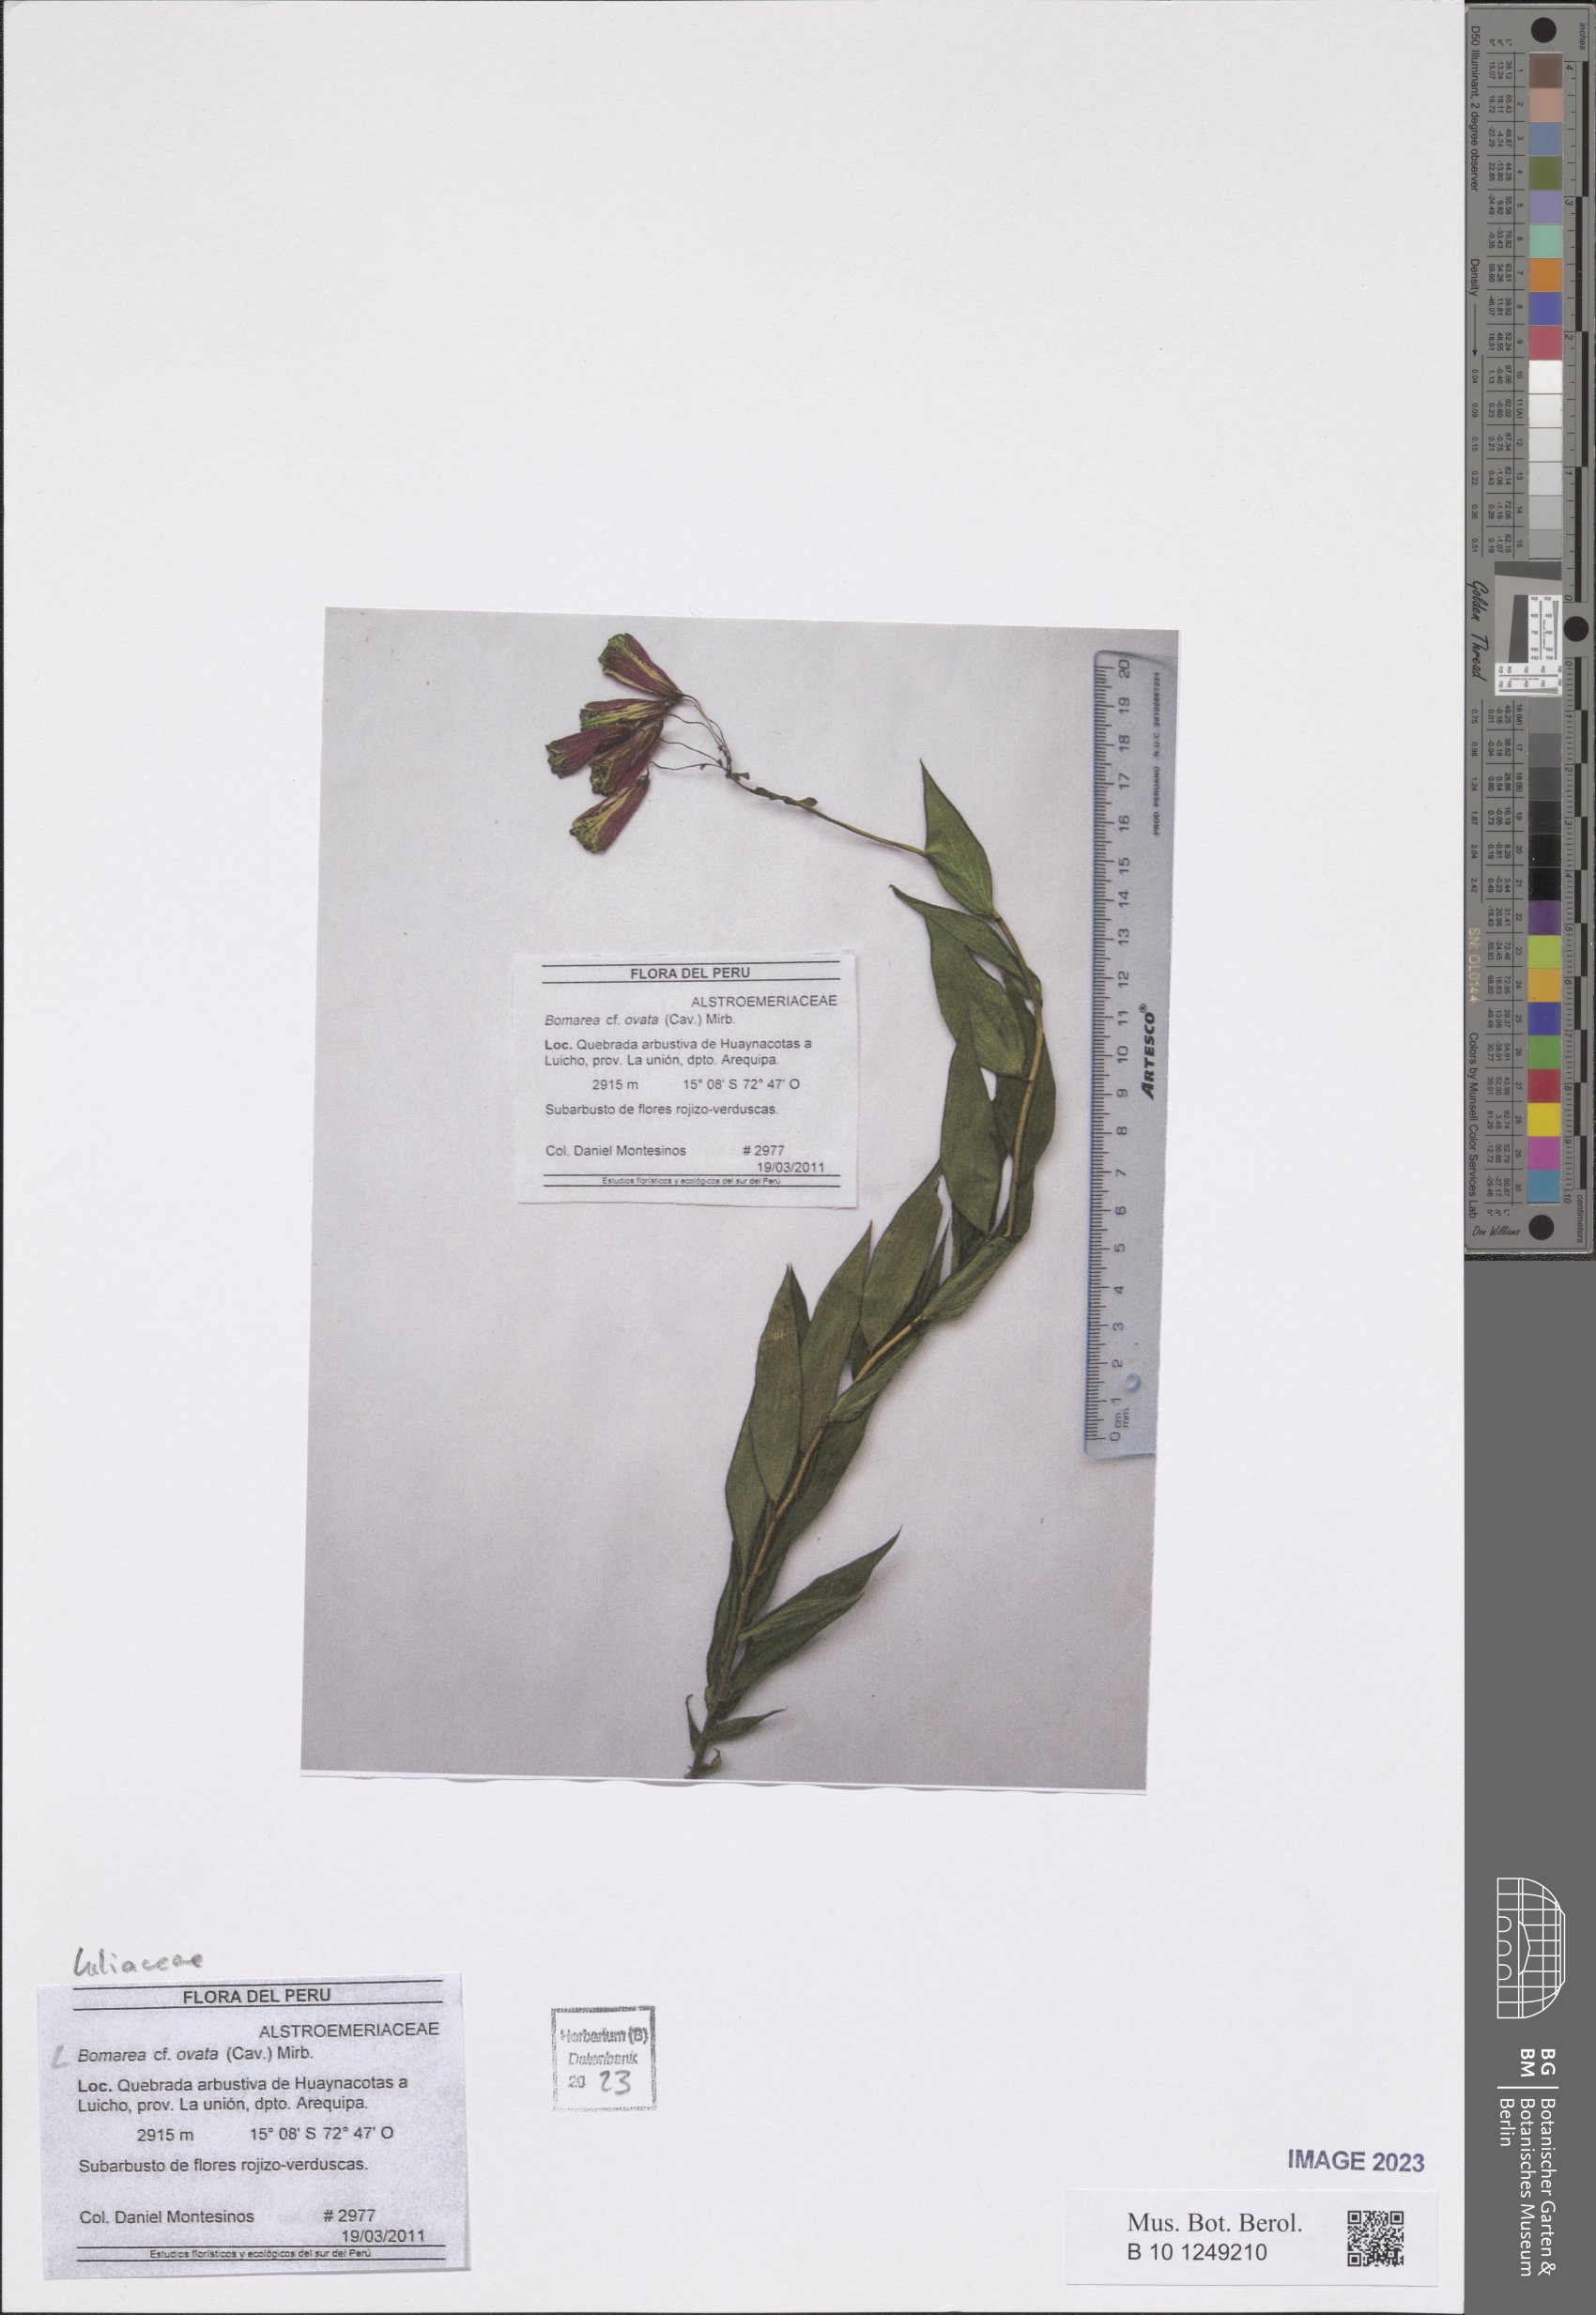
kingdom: Plantae
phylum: Tracheophyta
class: Liliopsida
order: Liliales
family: Alstroemeriaceae
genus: Bomarea
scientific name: Bomarea ovata
